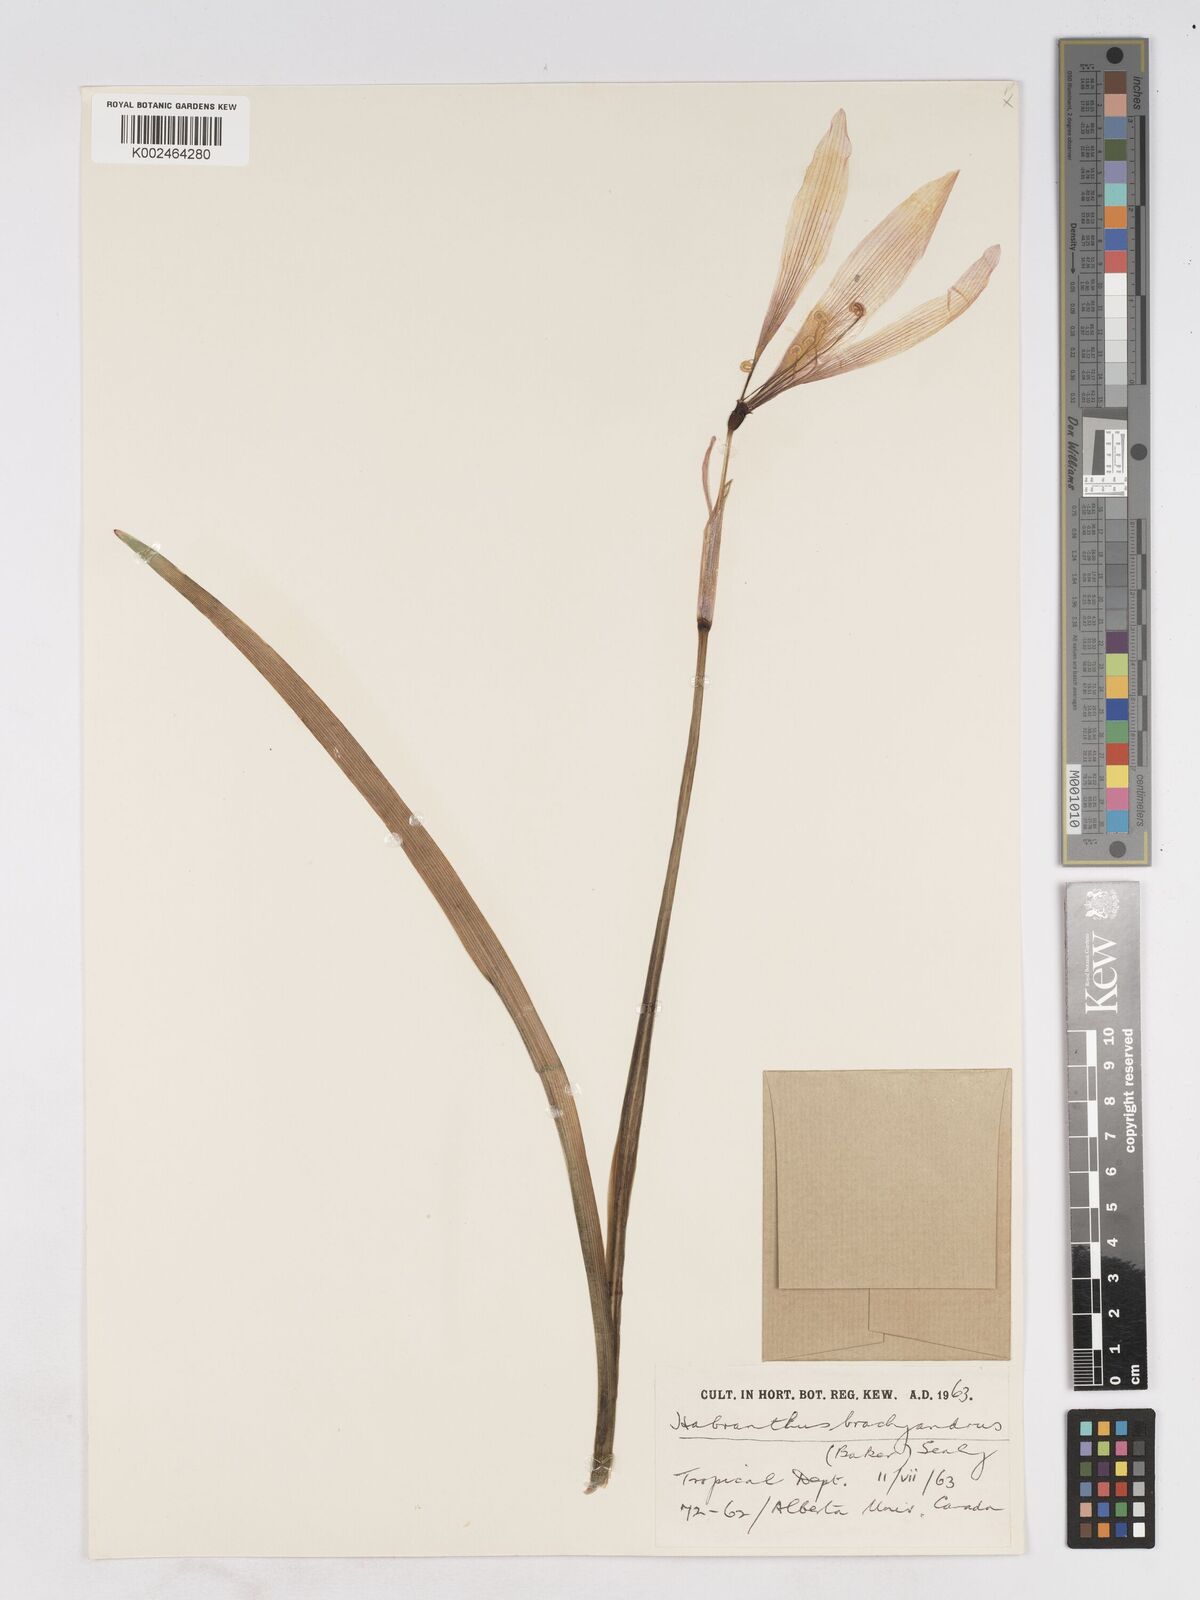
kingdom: Plantae
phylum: Tracheophyta
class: Liliopsida
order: Asparagales
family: Amaryllidaceae
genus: Zephyranthes
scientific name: Zephyranthes brachyandra
